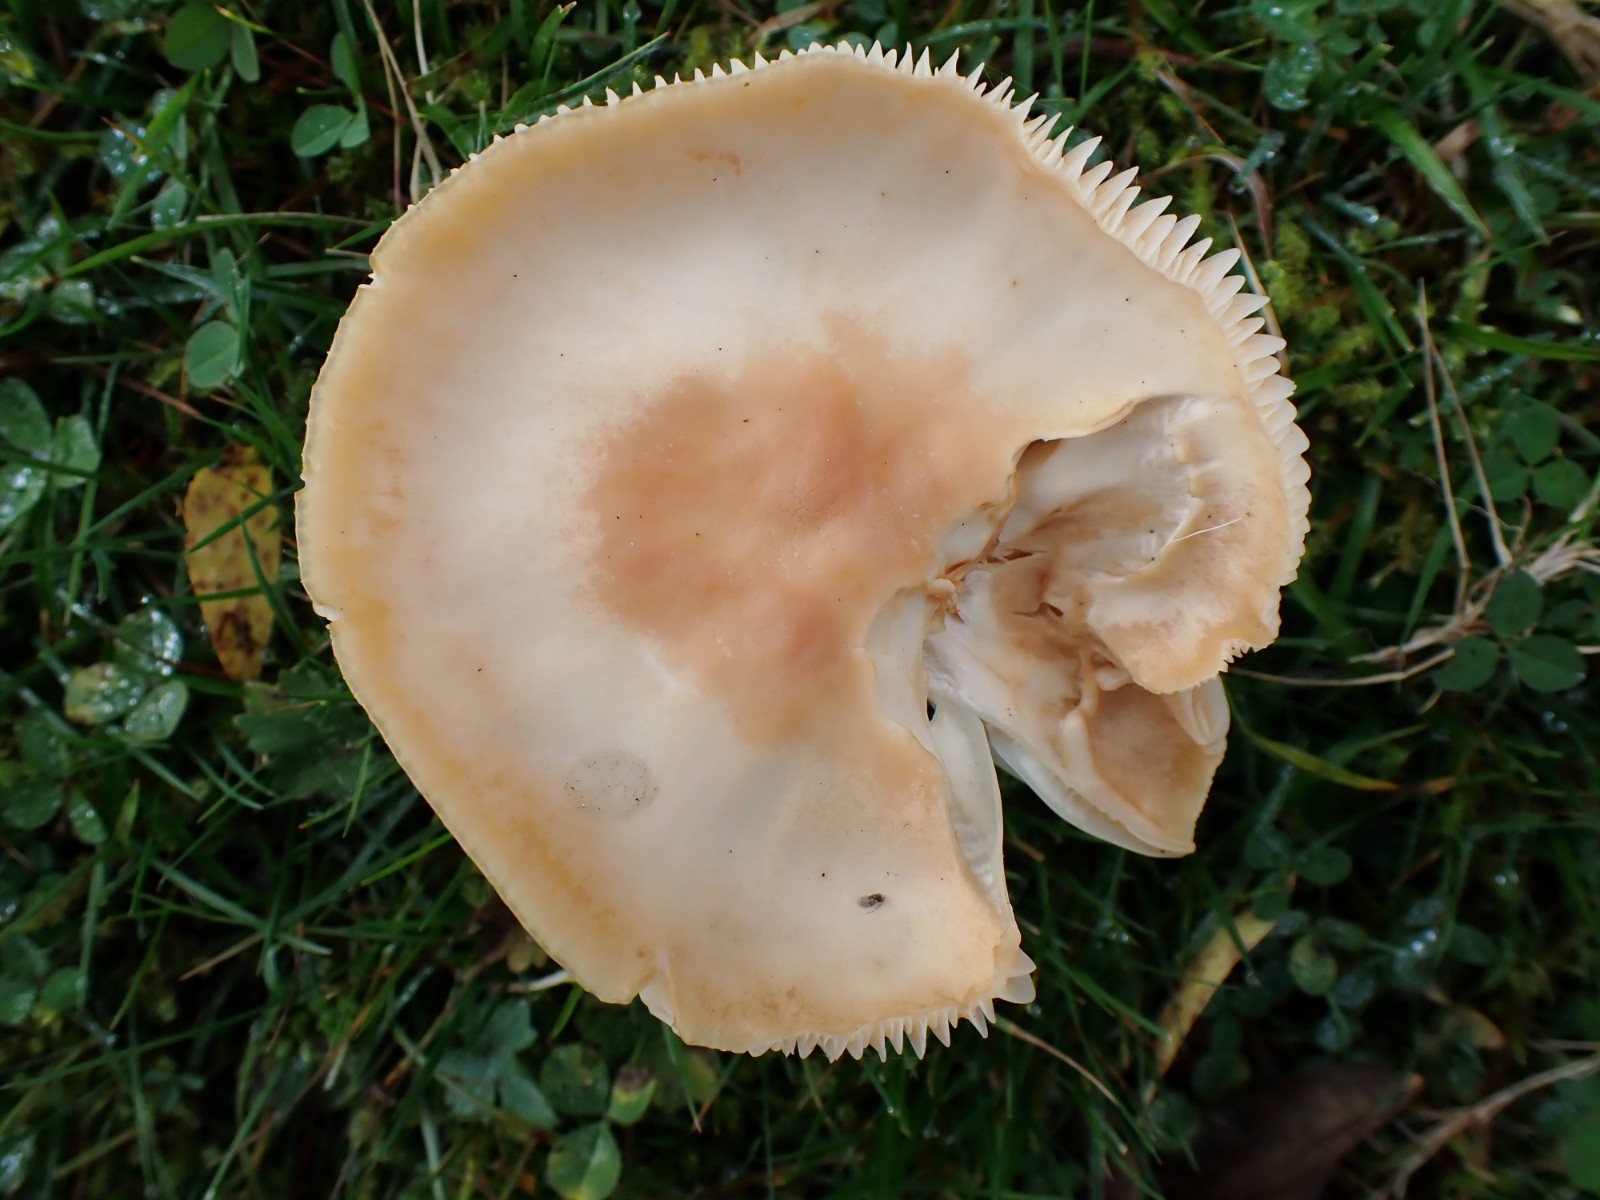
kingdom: Fungi
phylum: Basidiomycota
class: Agaricomycetes
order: Agaricales
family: Hygrophoraceae
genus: Cuphophyllus
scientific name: Cuphophyllus pratensis
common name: eng-vokshat
